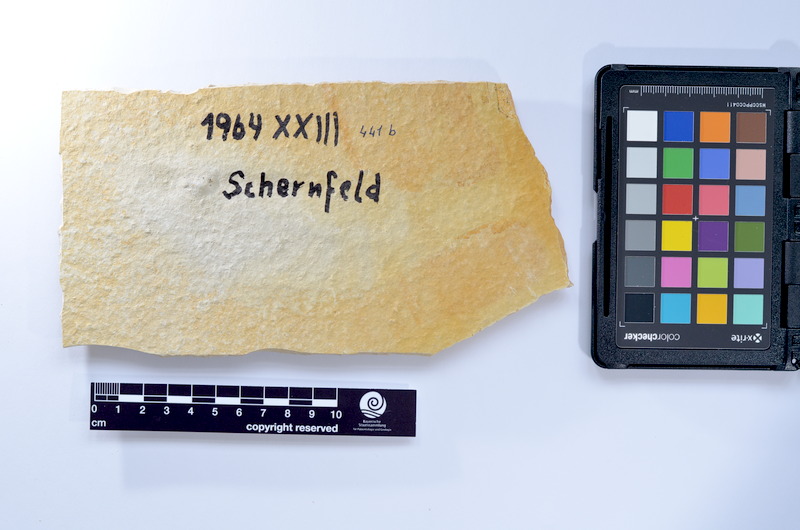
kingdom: Animalia
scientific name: Animalia
